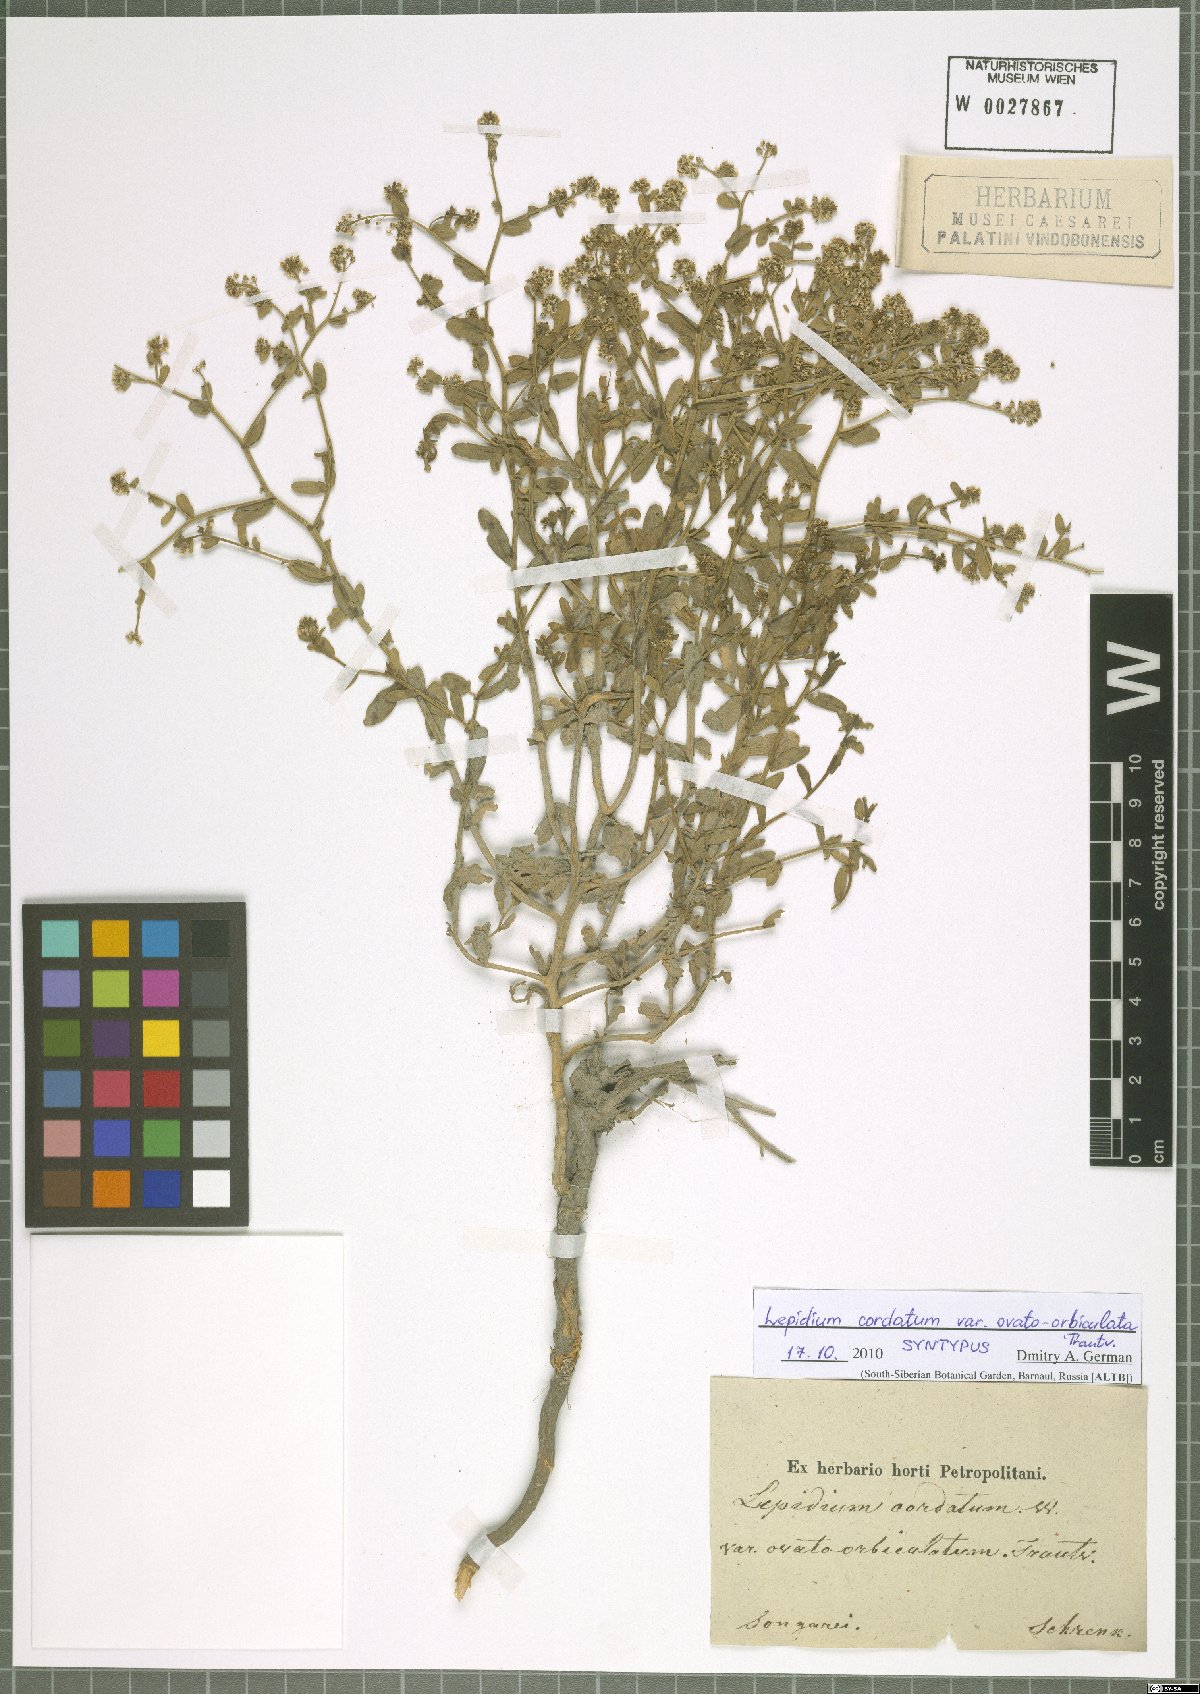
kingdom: Plantae
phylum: Tracheophyta
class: Magnoliopsida
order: Brassicales
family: Brassicaceae
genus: Lepidium
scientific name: Lepidium cordatum
